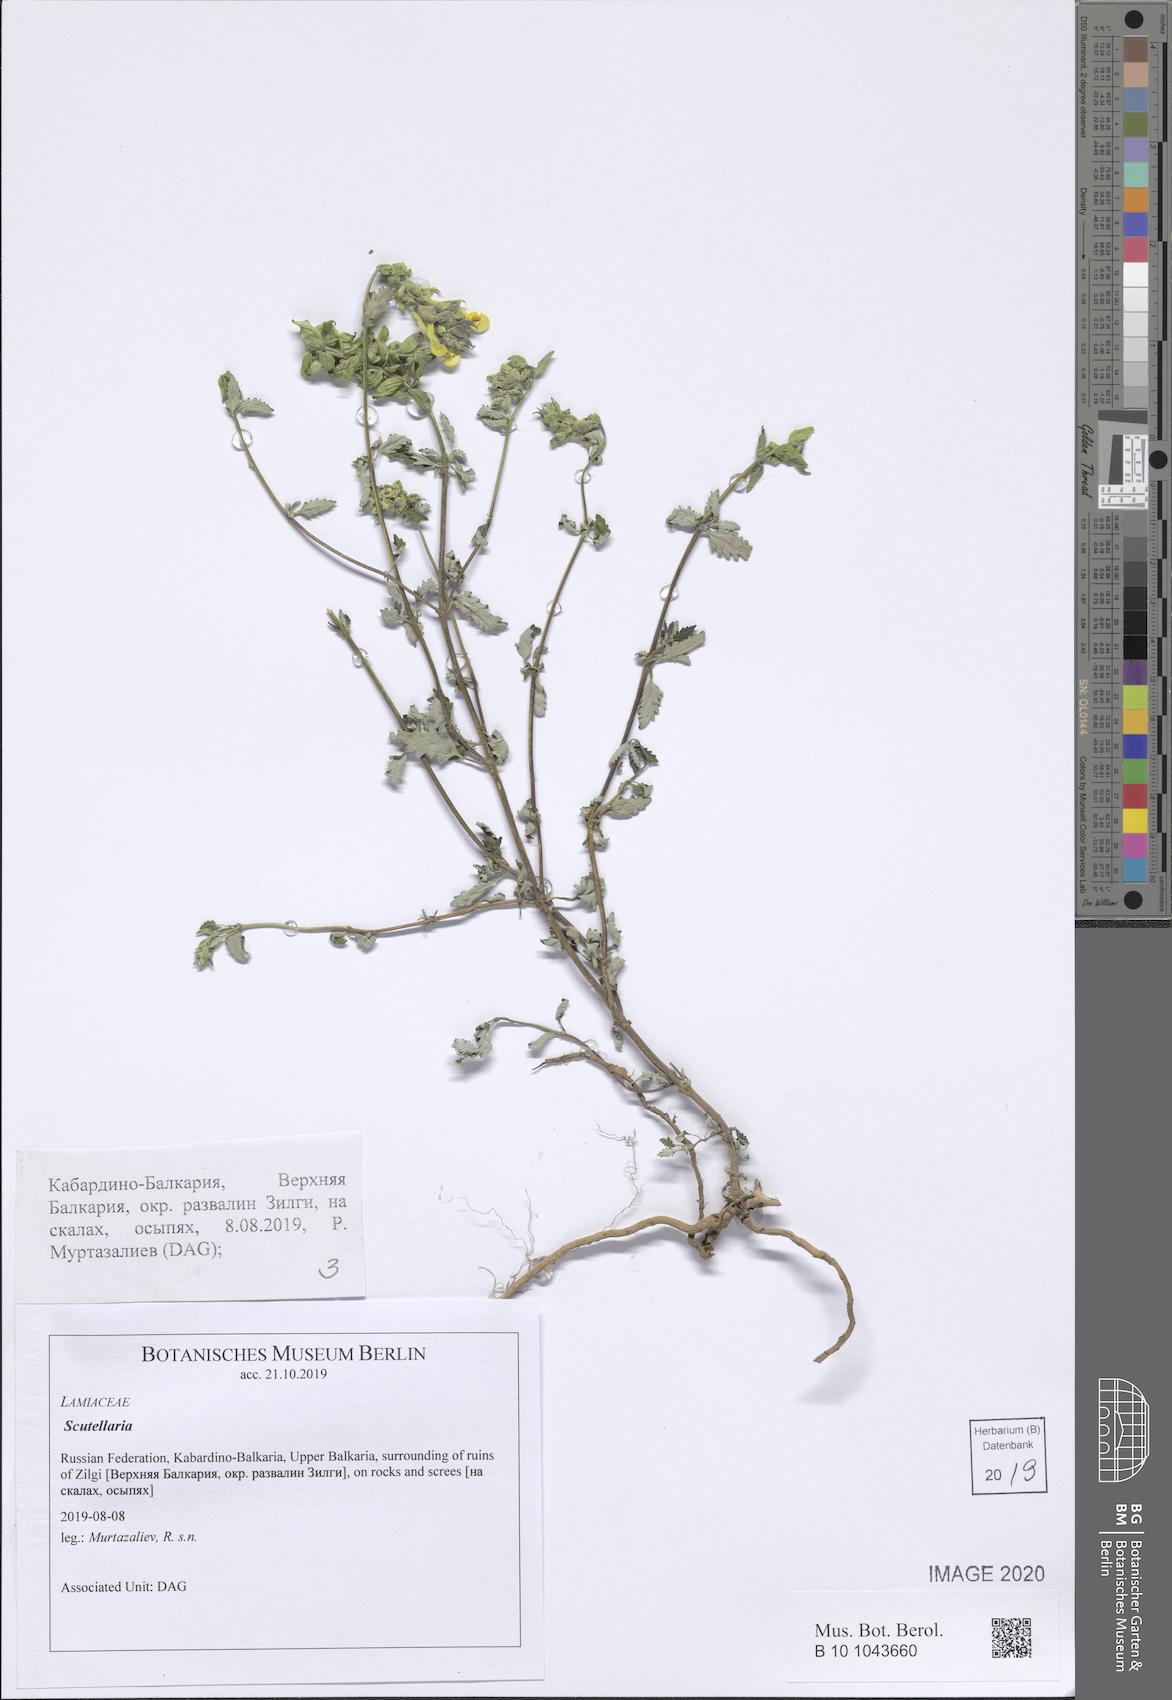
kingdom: Plantae
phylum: Tracheophyta
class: Magnoliopsida
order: Lamiales
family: Lamiaceae
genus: Scutellaria
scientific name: Scutellaria
